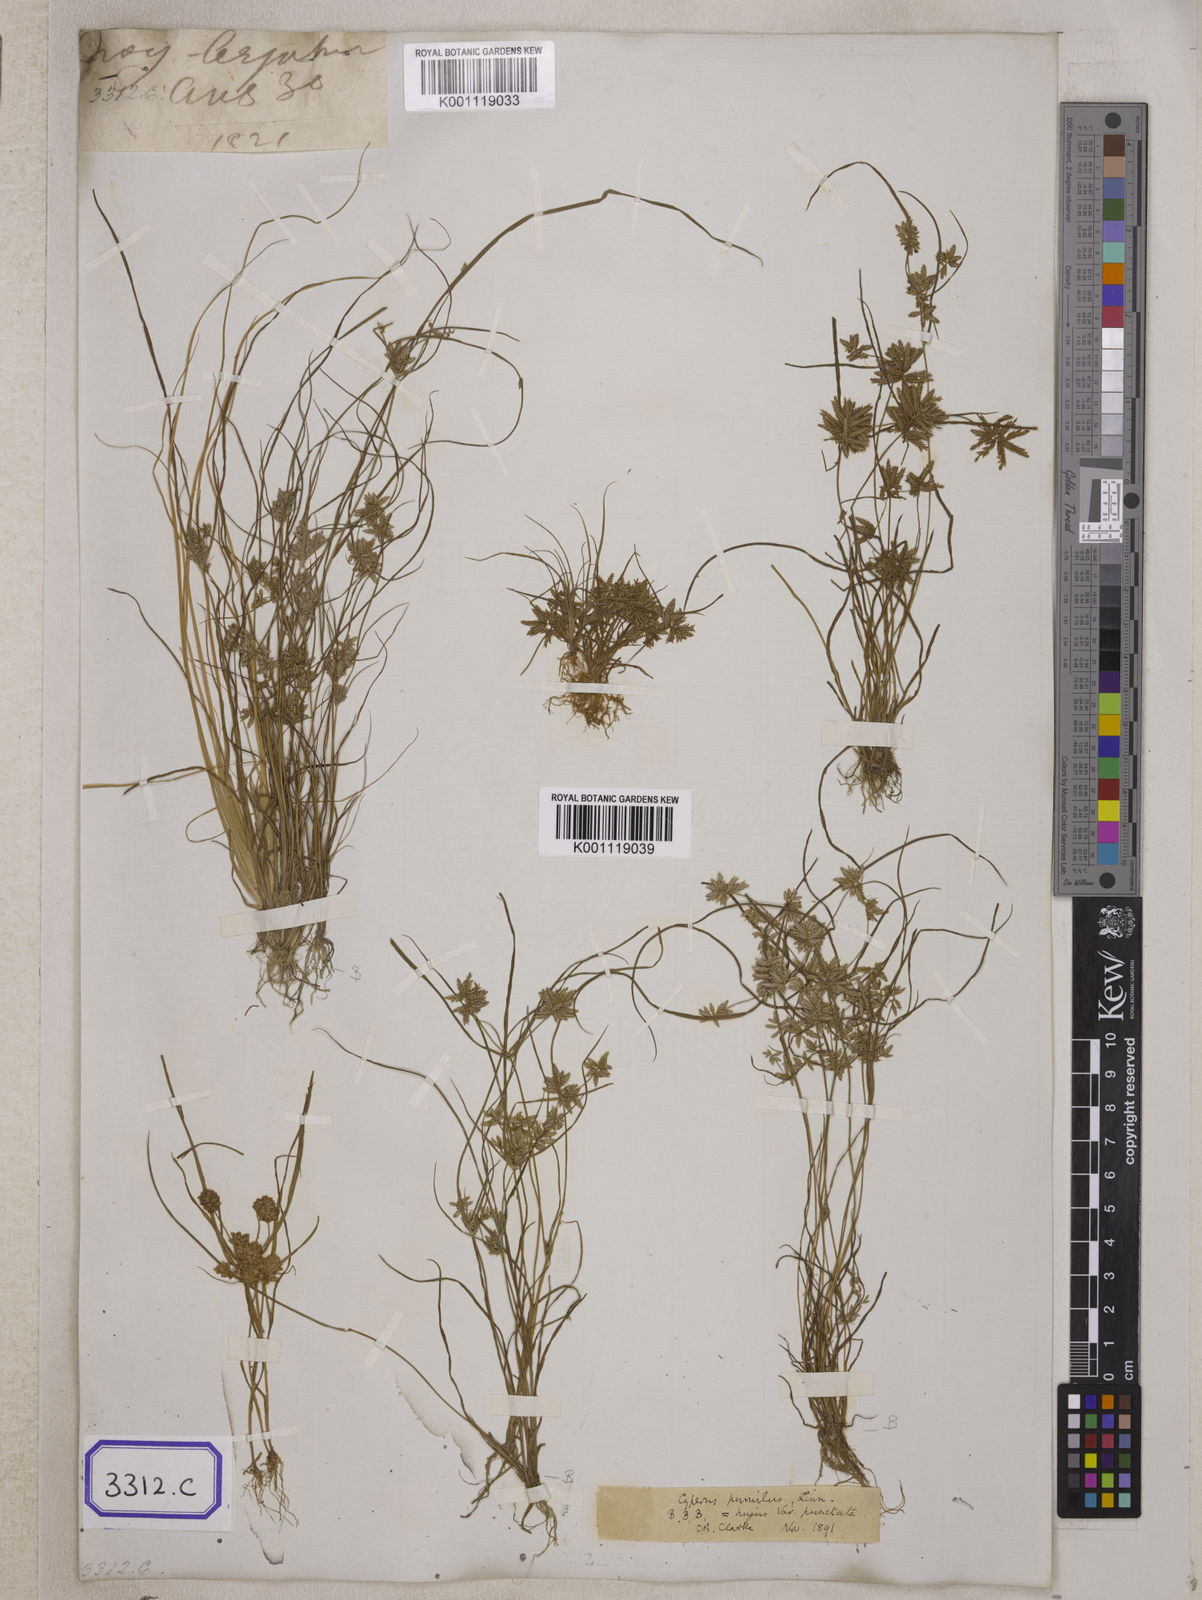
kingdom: Plantae
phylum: Tracheophyta
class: Liliopsida
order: Poales
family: Cyperaceae
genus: Cyperus
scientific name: Cyperus
